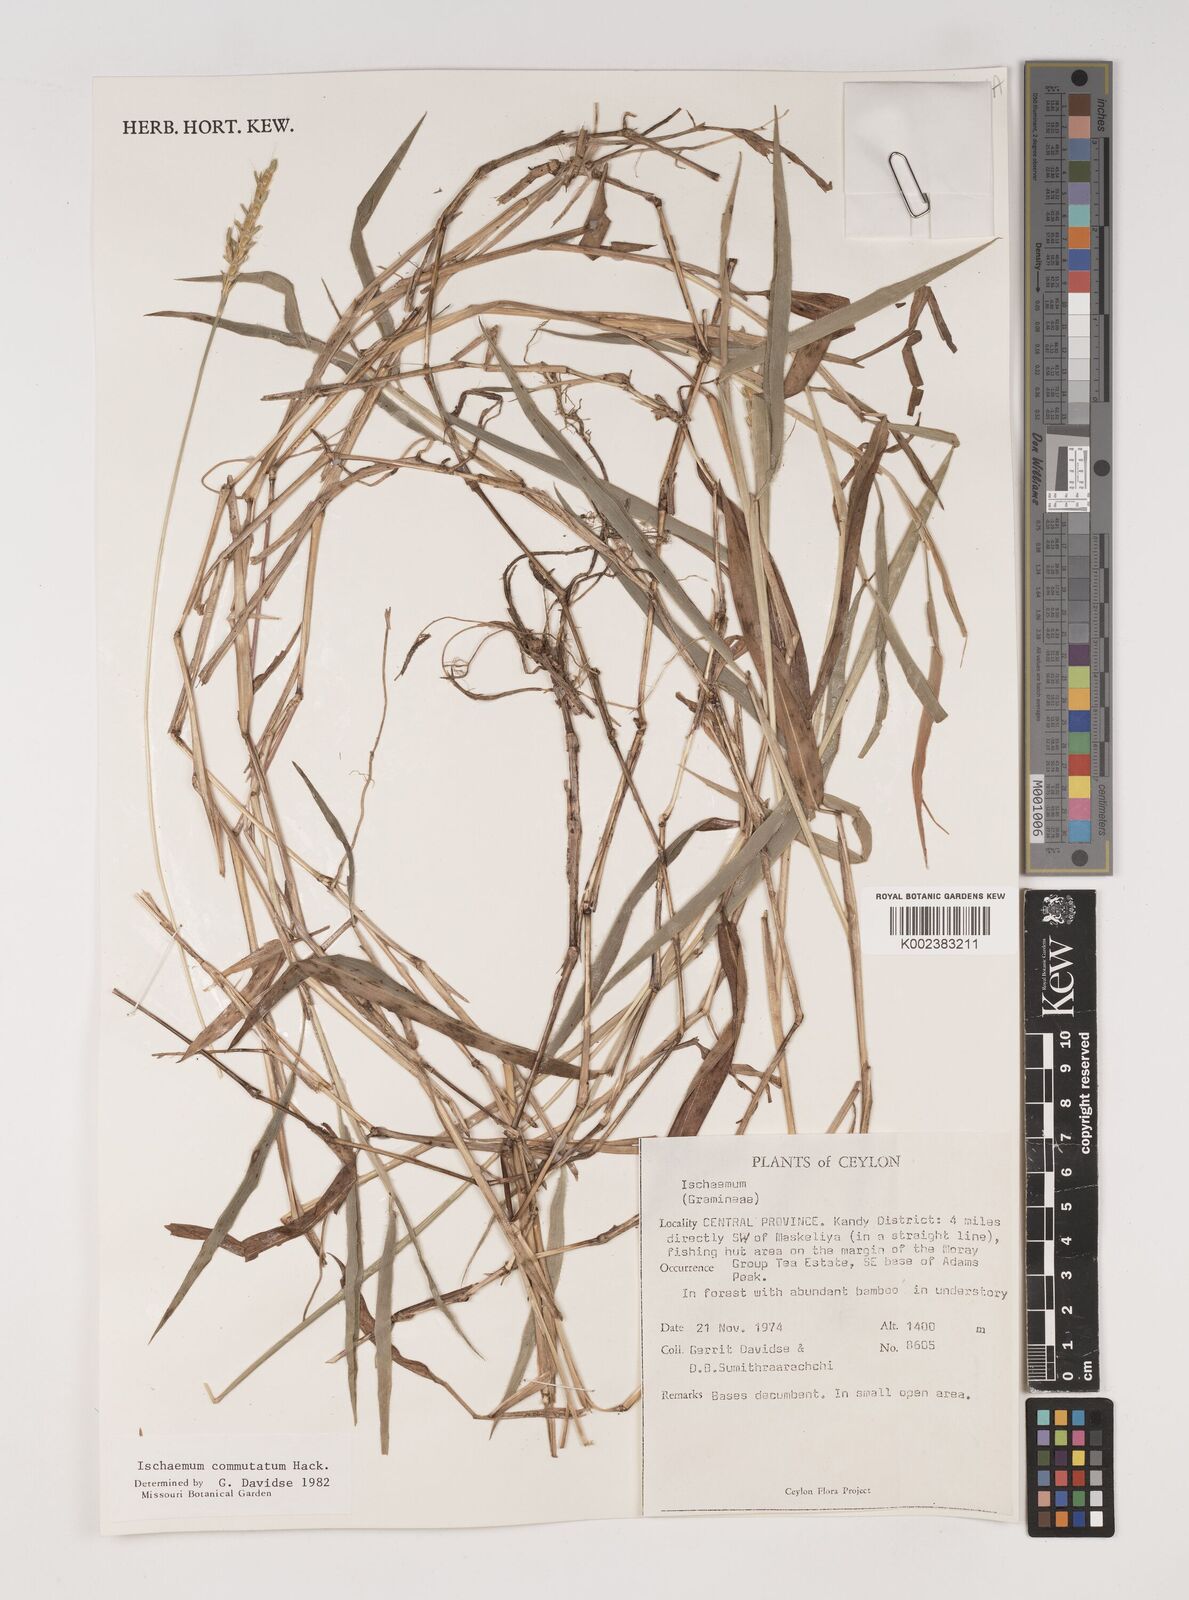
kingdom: Plantae
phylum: Tracheophyta
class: Liliopsida
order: Poales
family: Poaceae
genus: Ischaemum
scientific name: Ischaemum commutatum
